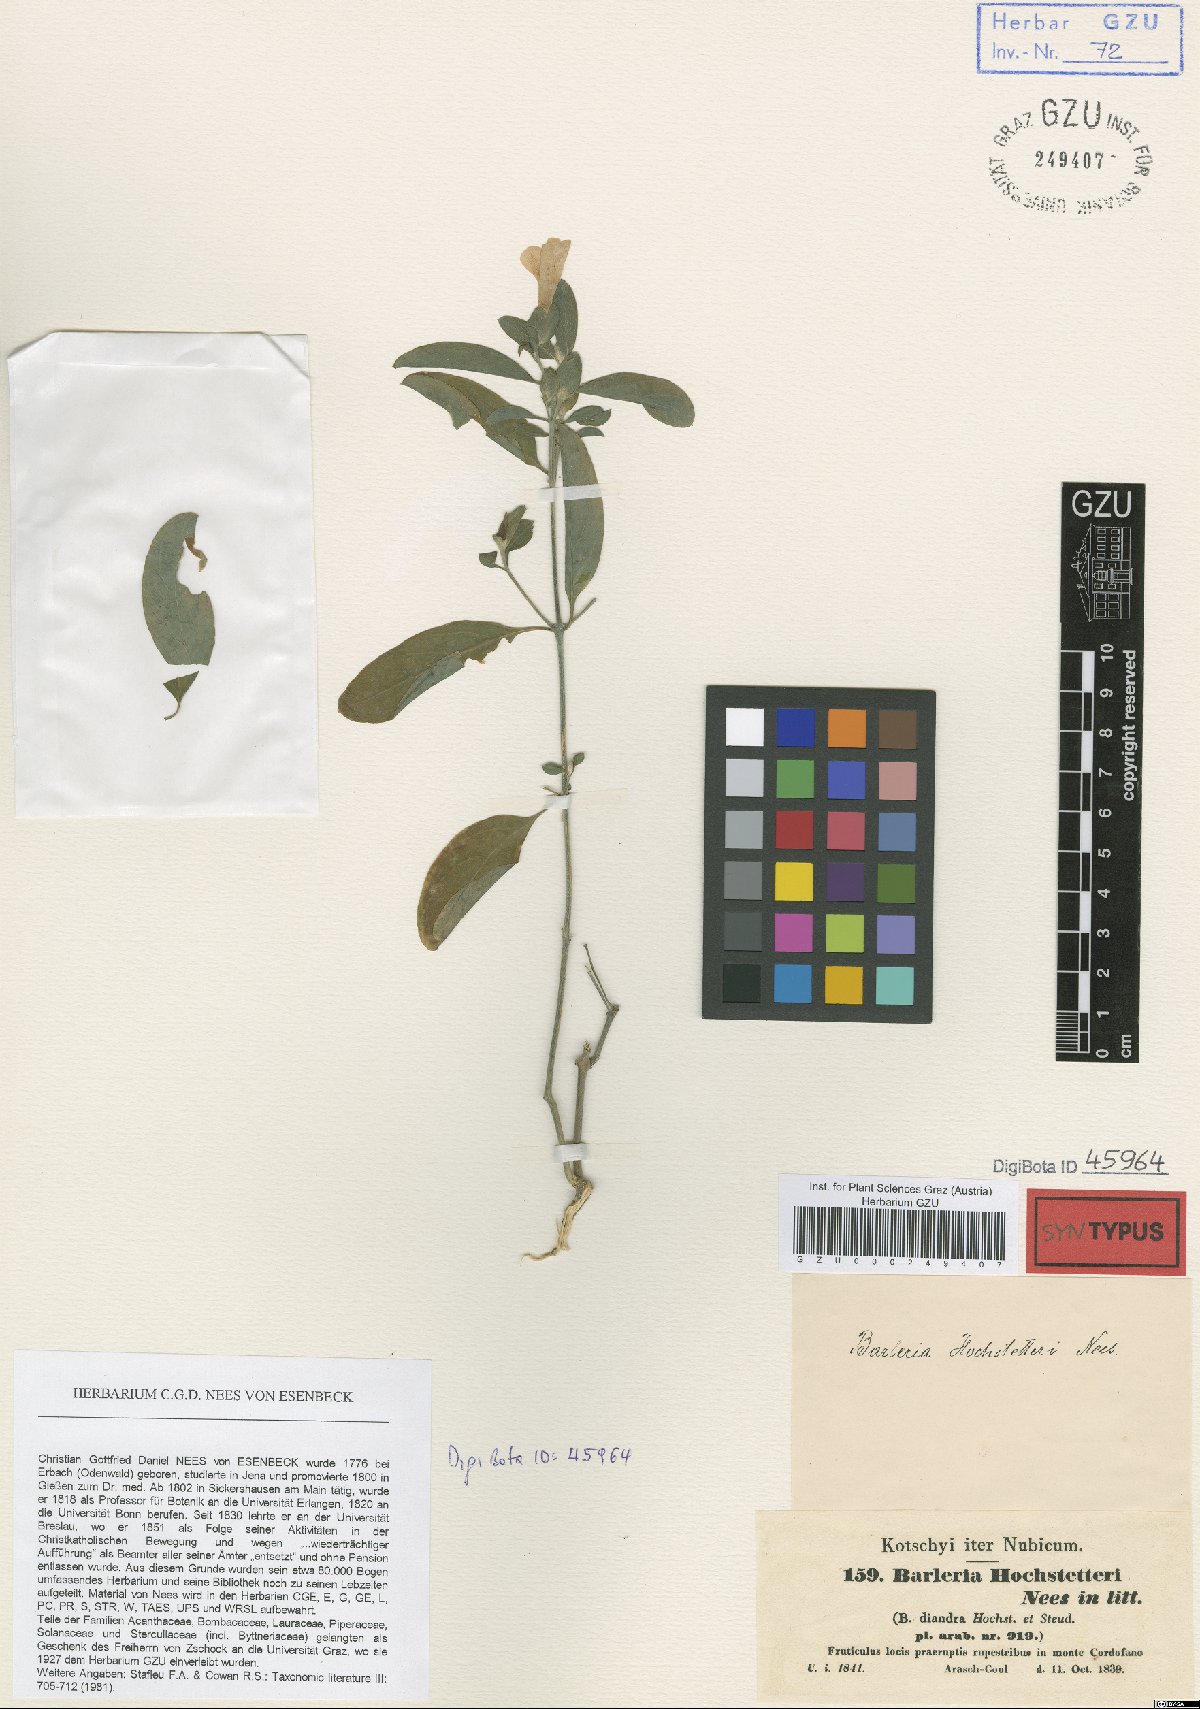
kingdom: Plantae
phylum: Tracheophyta
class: Magnoliopsida
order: Lamiales
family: Acanthaceae
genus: Barleria
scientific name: Barleria hochstetteri
